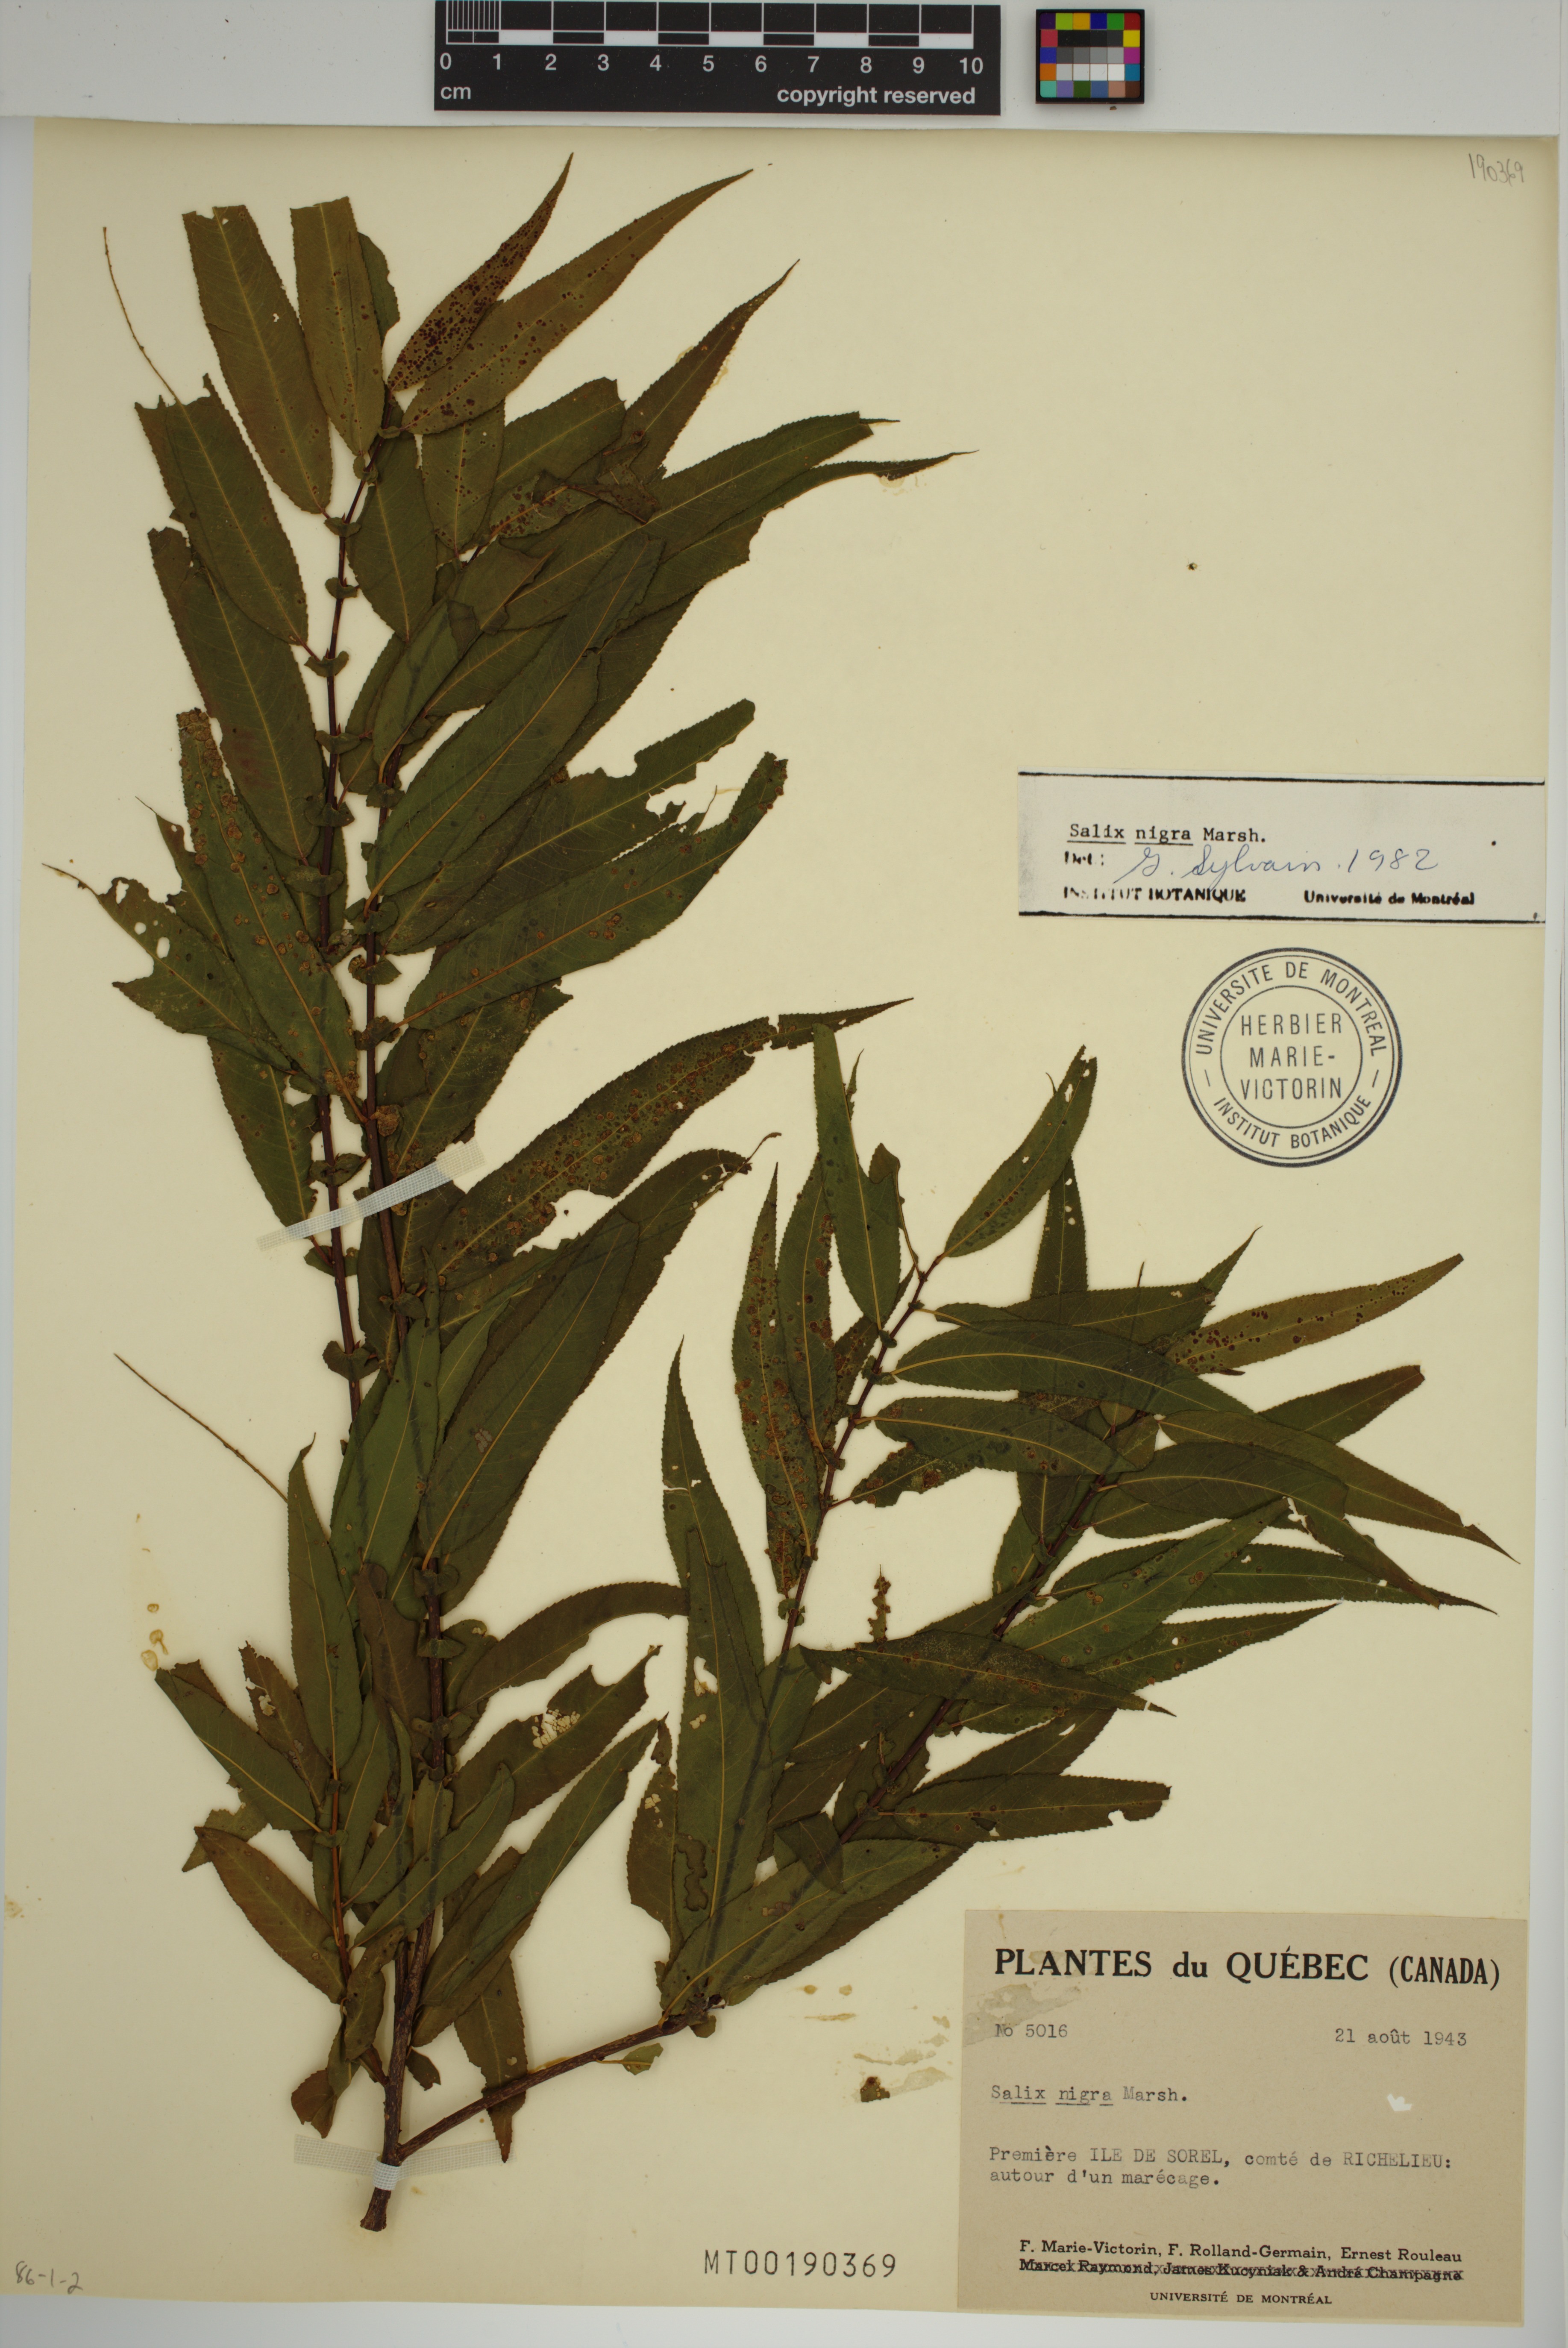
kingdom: Plantae
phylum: Tracheophyta
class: Magnoliopsida
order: Malpighiales
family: Salicaceae
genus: Salix
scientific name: Salix nigra
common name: Black willow
